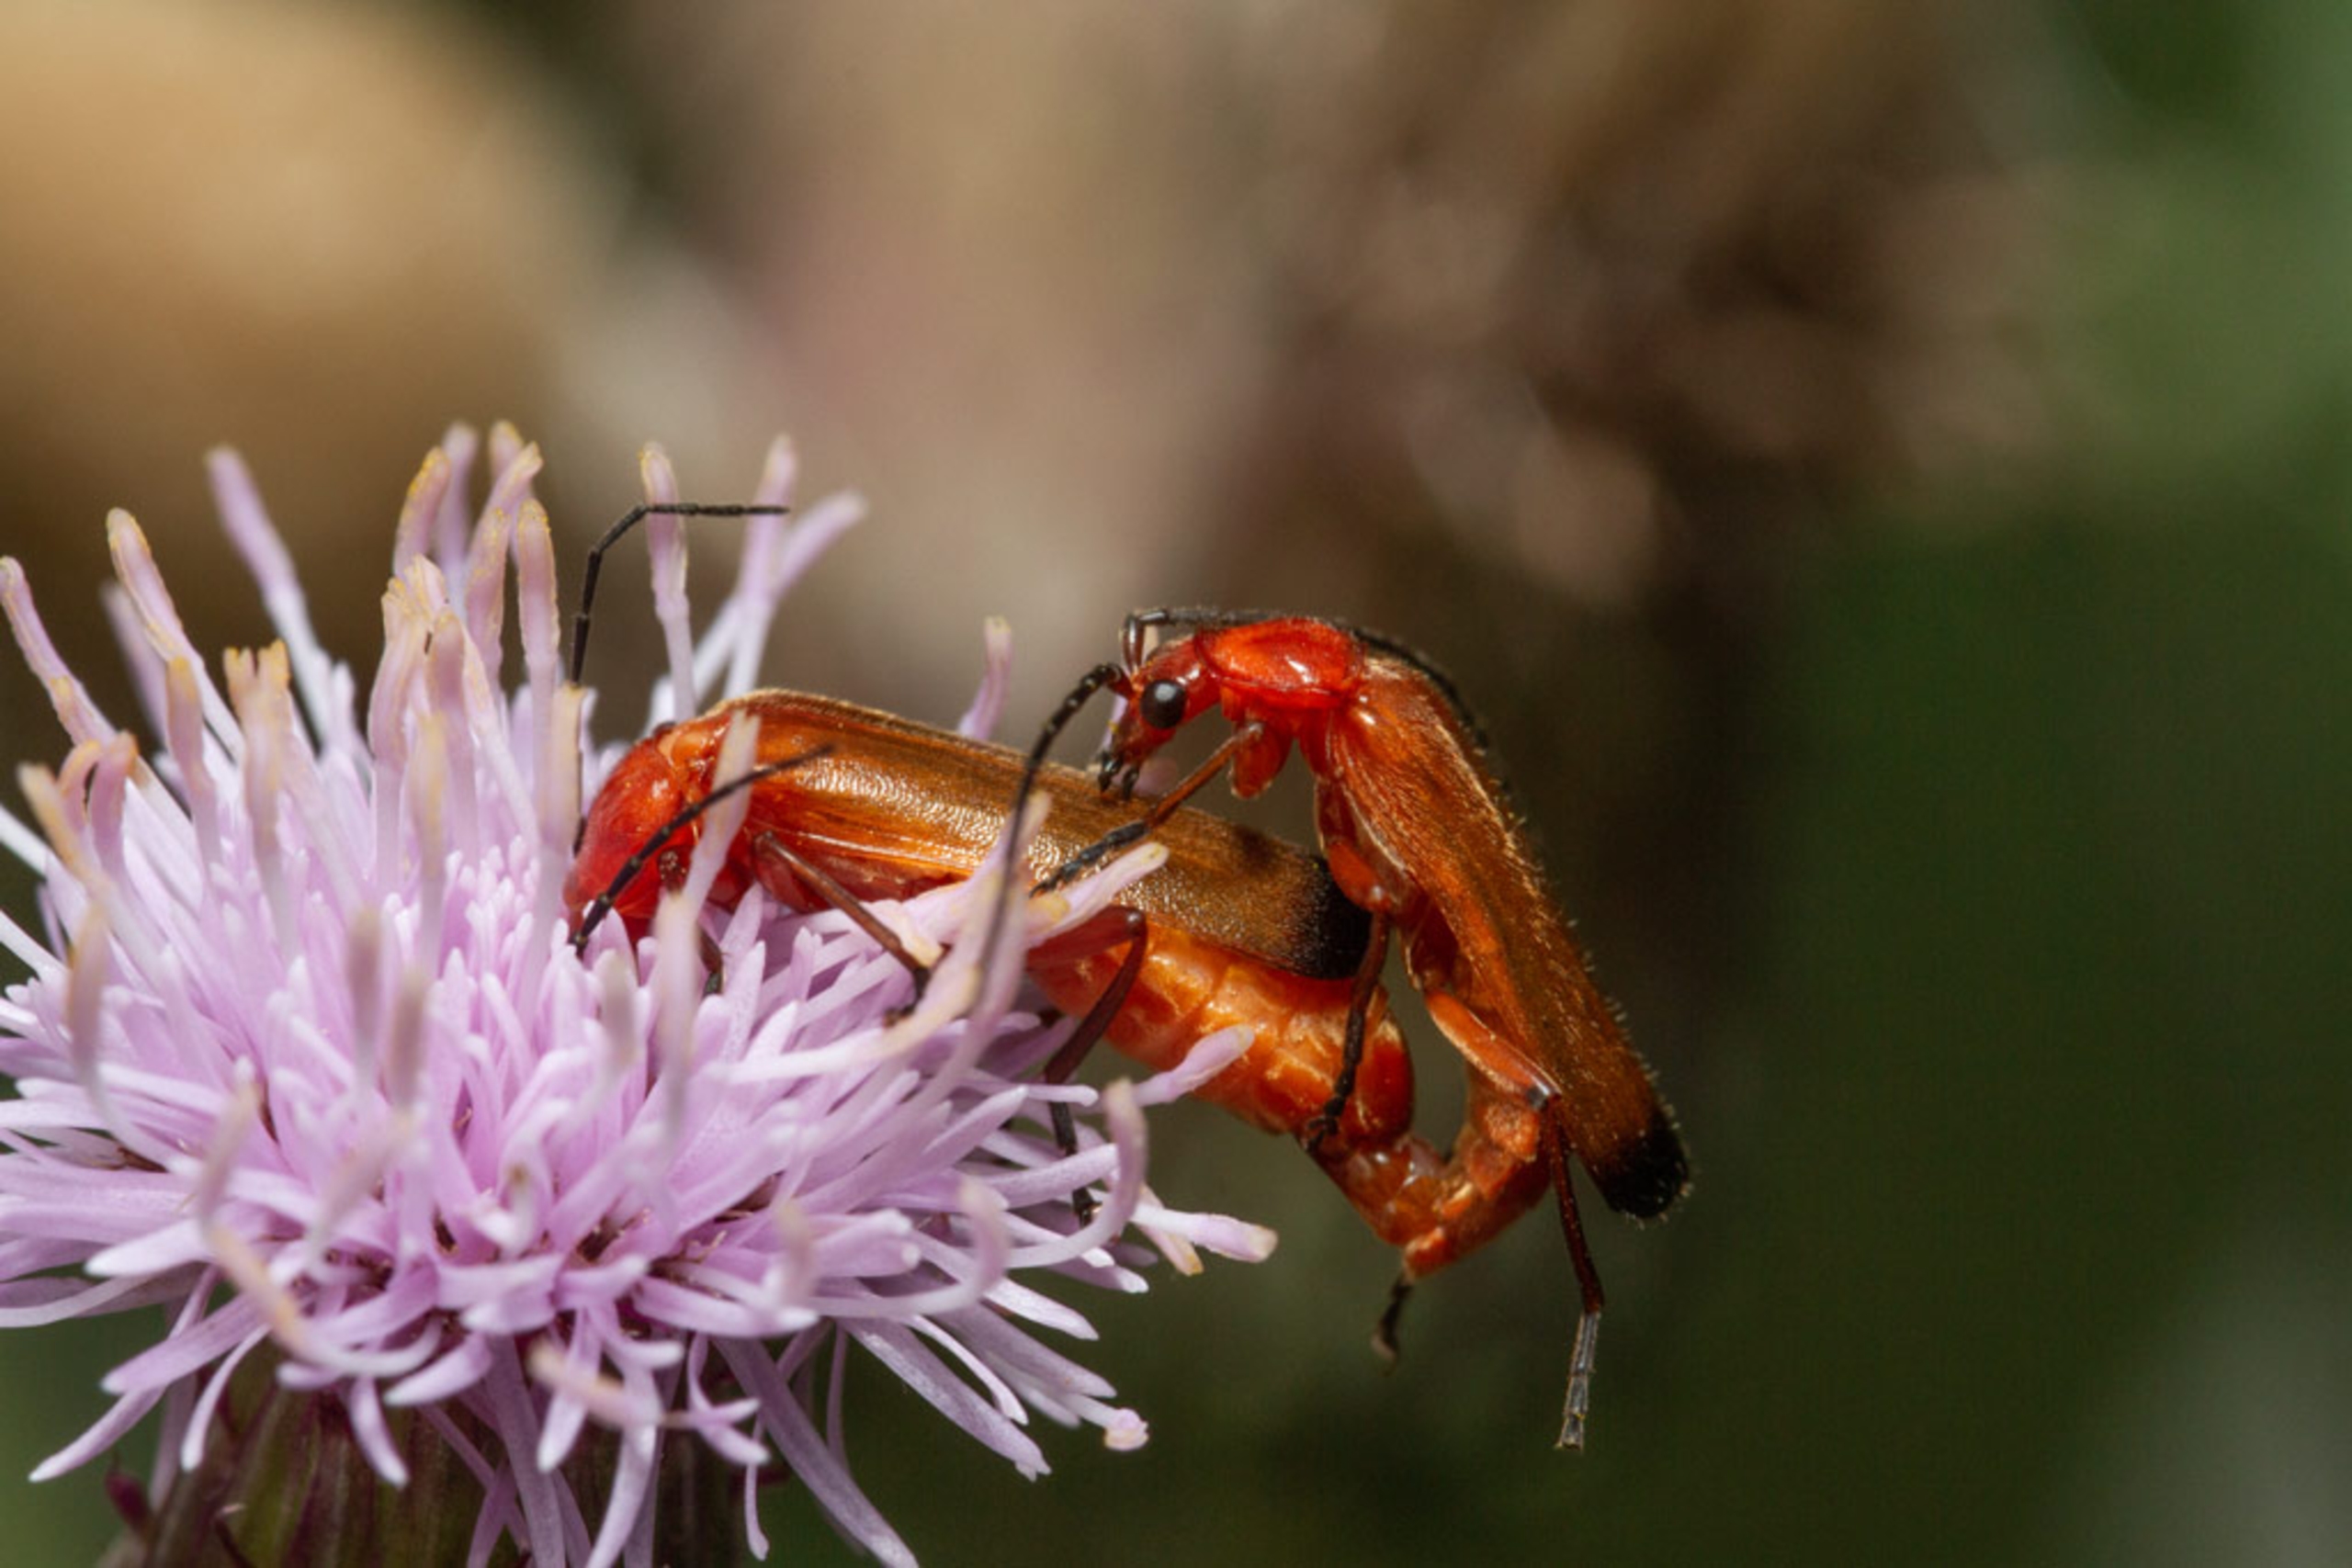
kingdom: Animalia
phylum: Arthropoda
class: Insecta
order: Coleoptera
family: Cantharidae
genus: Rhagonycha
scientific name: Rhagonycha fulva
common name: Præstebille
